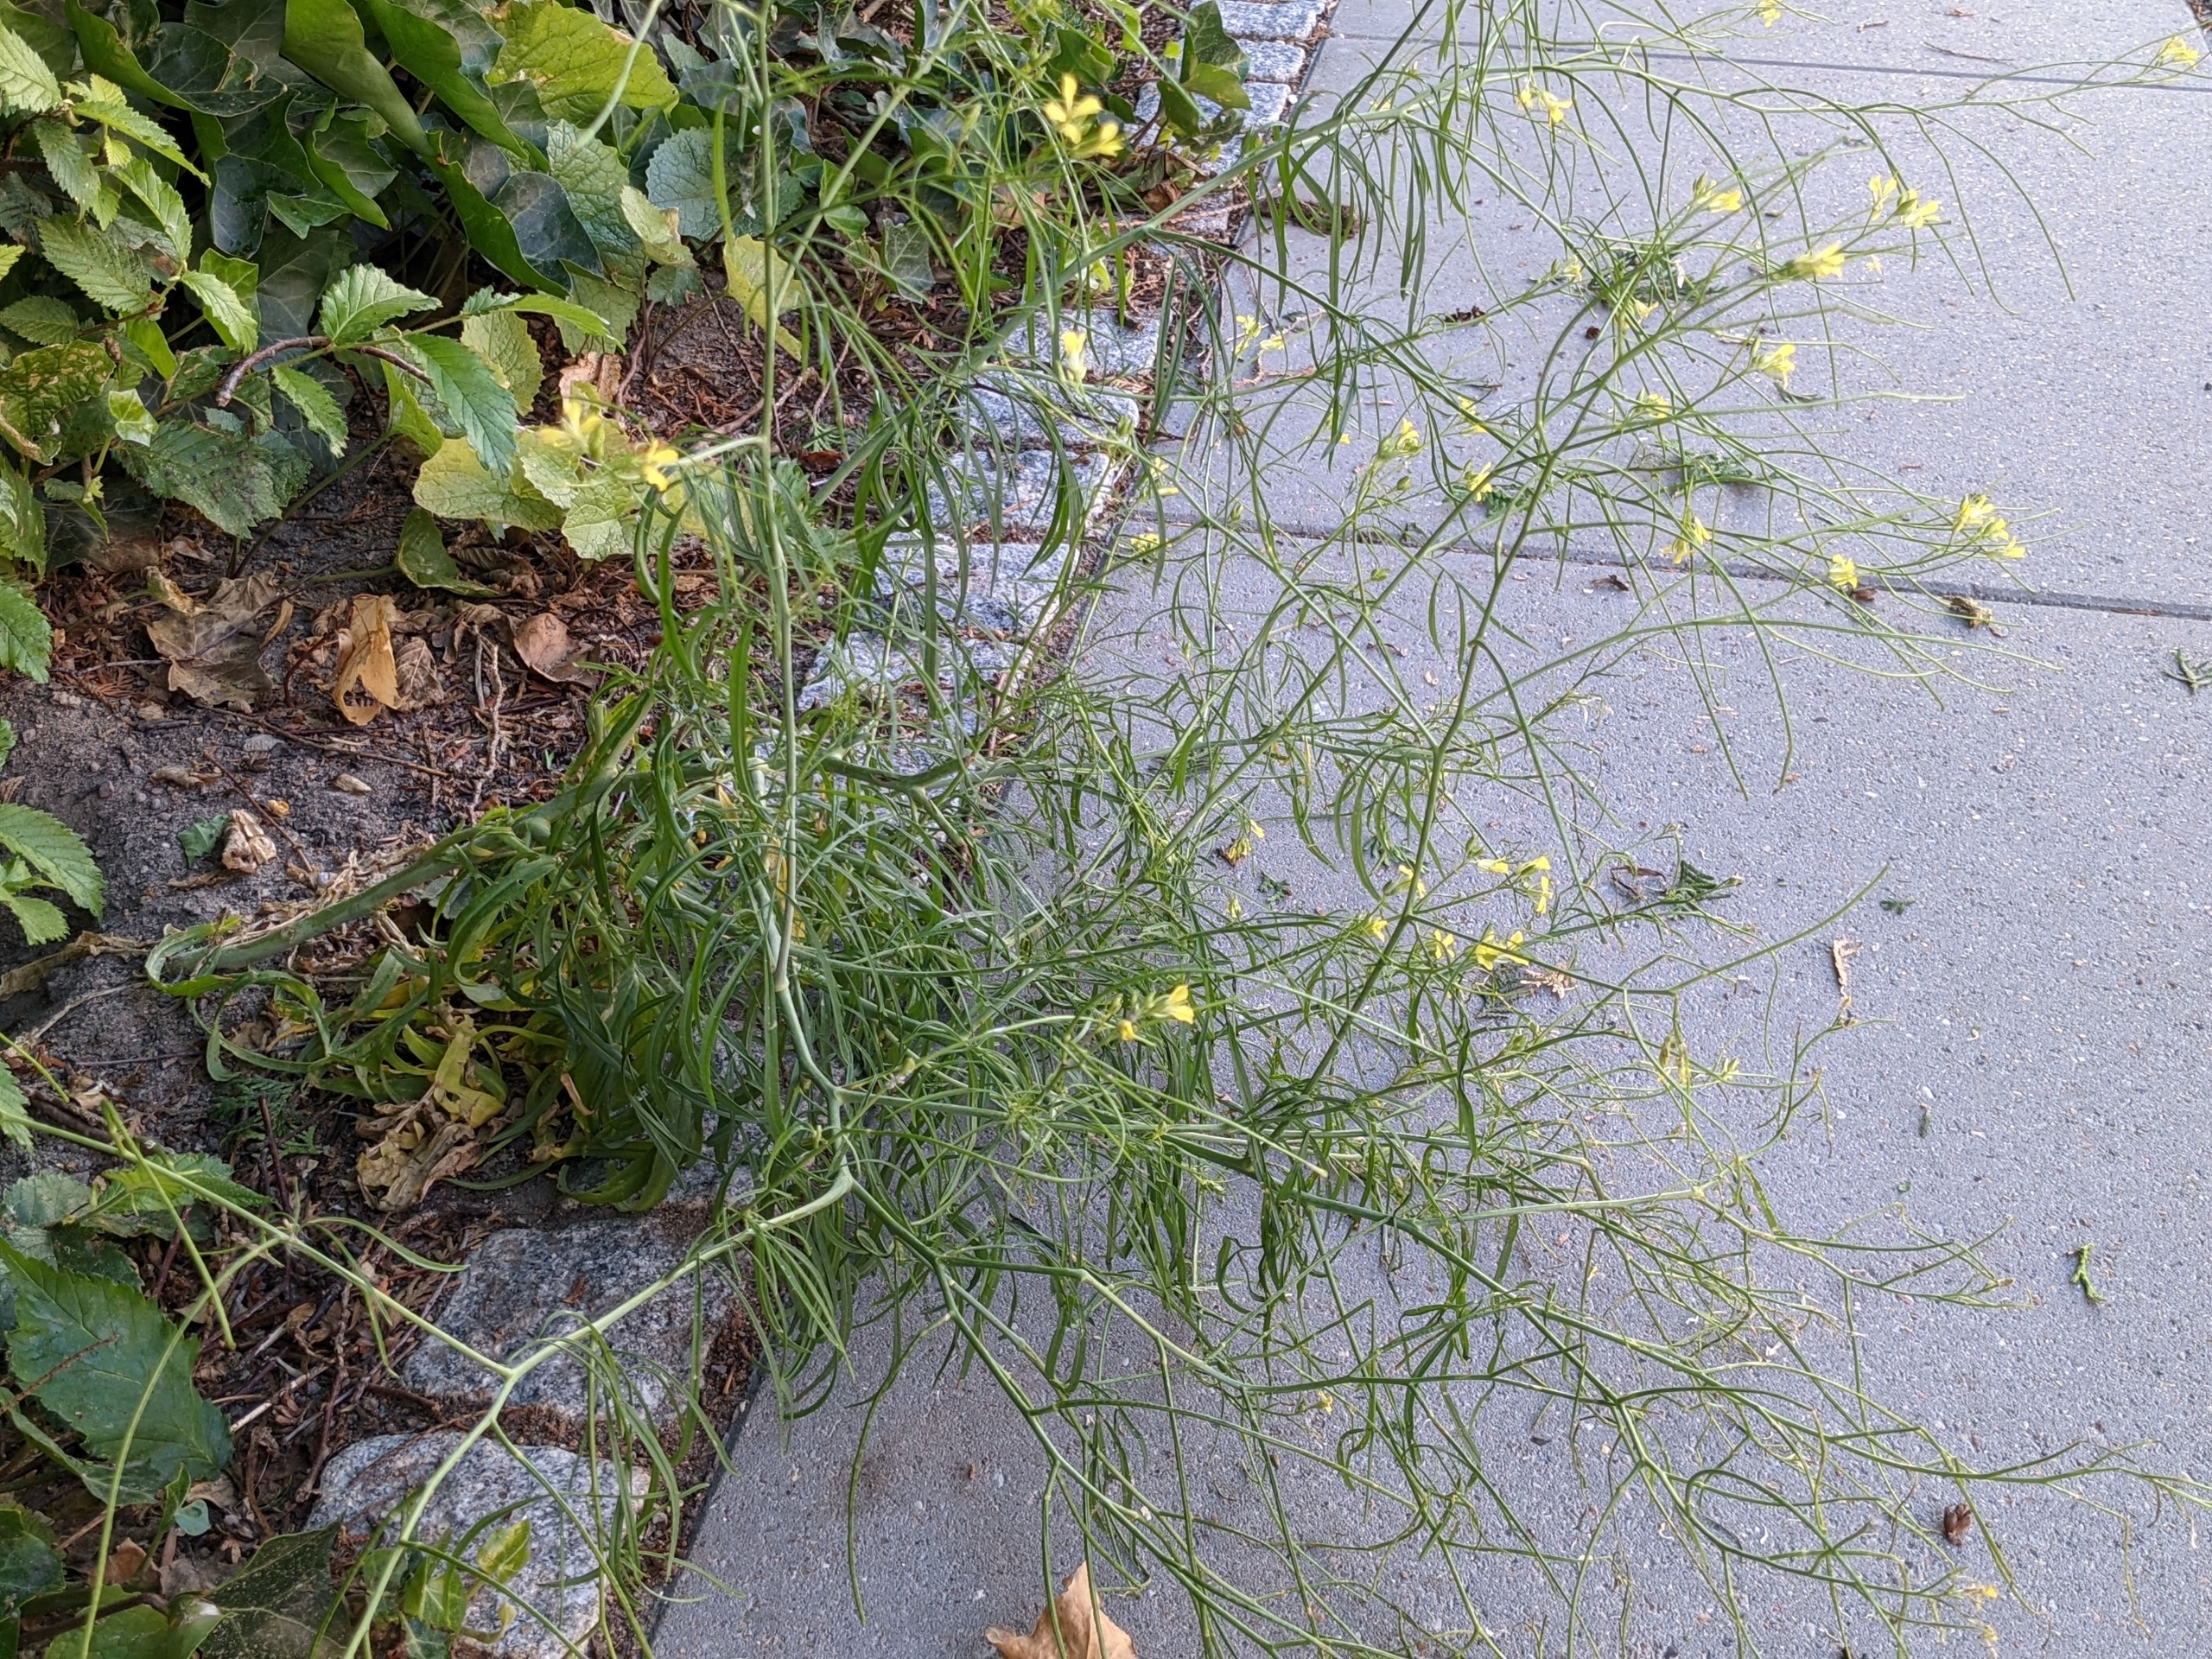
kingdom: Plantae
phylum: Tracheophyta
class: Magnoliopsida
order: Brassicales
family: Brassicaceae
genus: Sisymbrium
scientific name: Sisymbrium altissimum
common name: Ungarsk vejsennep
